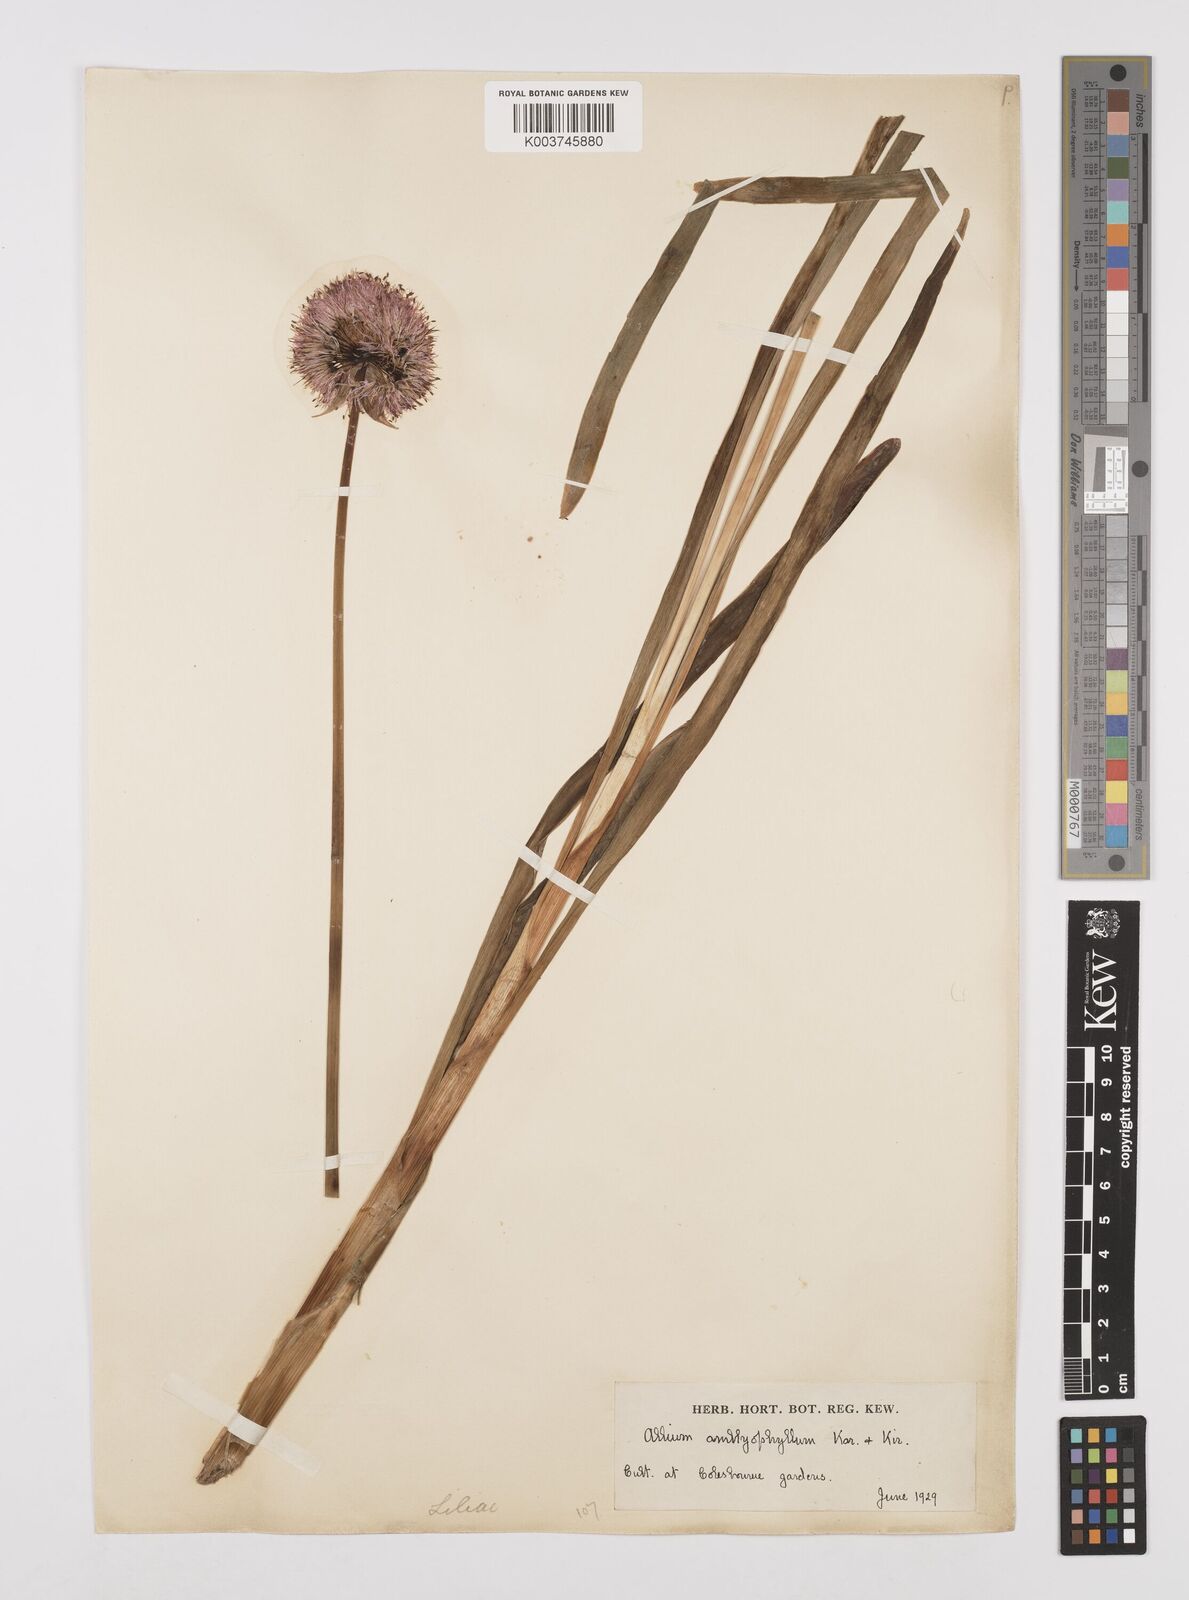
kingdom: Plantae
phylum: Tracheophyta
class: Liliopsida
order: Asparagales
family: Amaryllidaceae
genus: Allium
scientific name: Allium platyspathum
